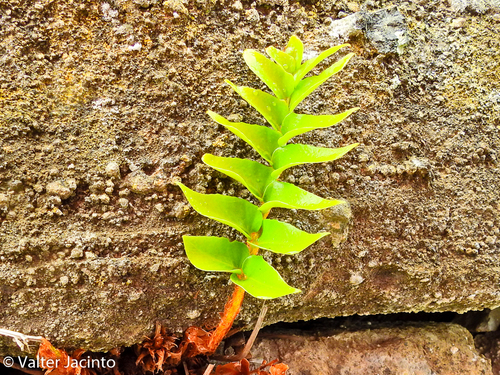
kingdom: Plantae
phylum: Tracheophyta
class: Polypodiopsida
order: Polypodiales
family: Dryopteridaceae
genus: Cyrtomium
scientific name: Cyrtomium falcatum
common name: House holly-fern
